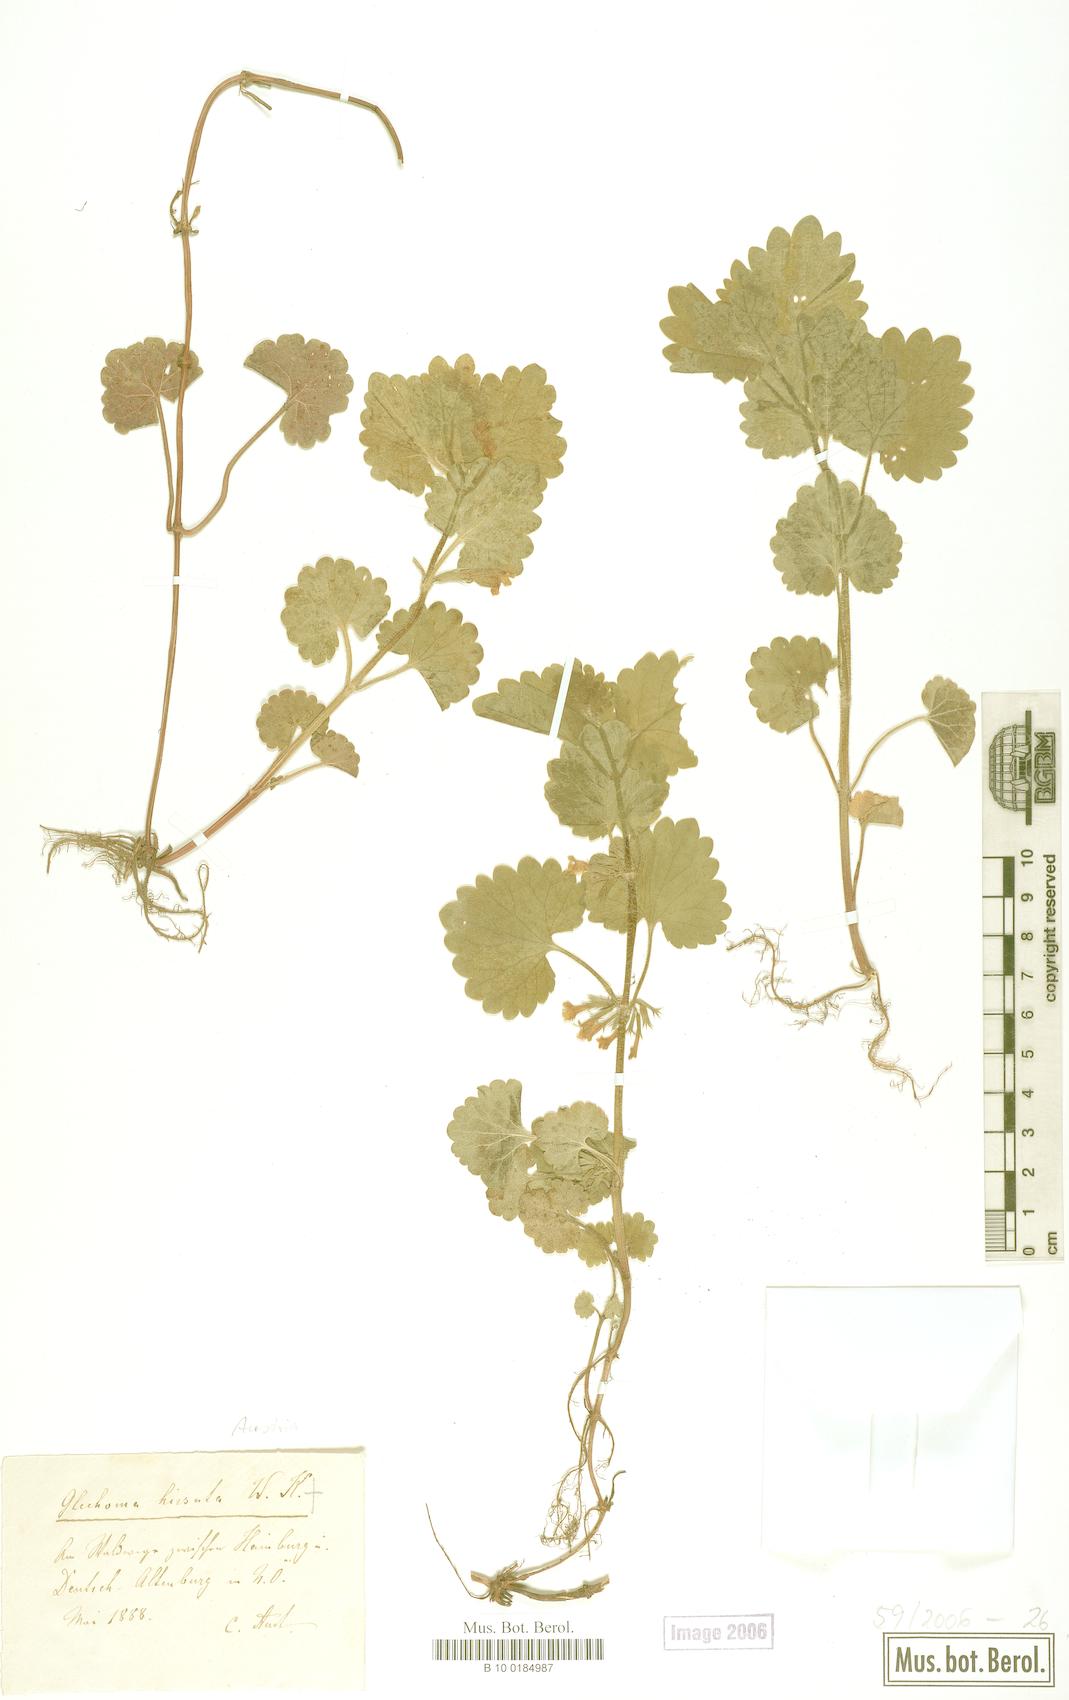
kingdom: Plantae
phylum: Tracheophyta
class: Magnoliopsida
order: Lamiales
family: Lamiaceae
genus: Glechoma
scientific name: Glechoma hirsuta
